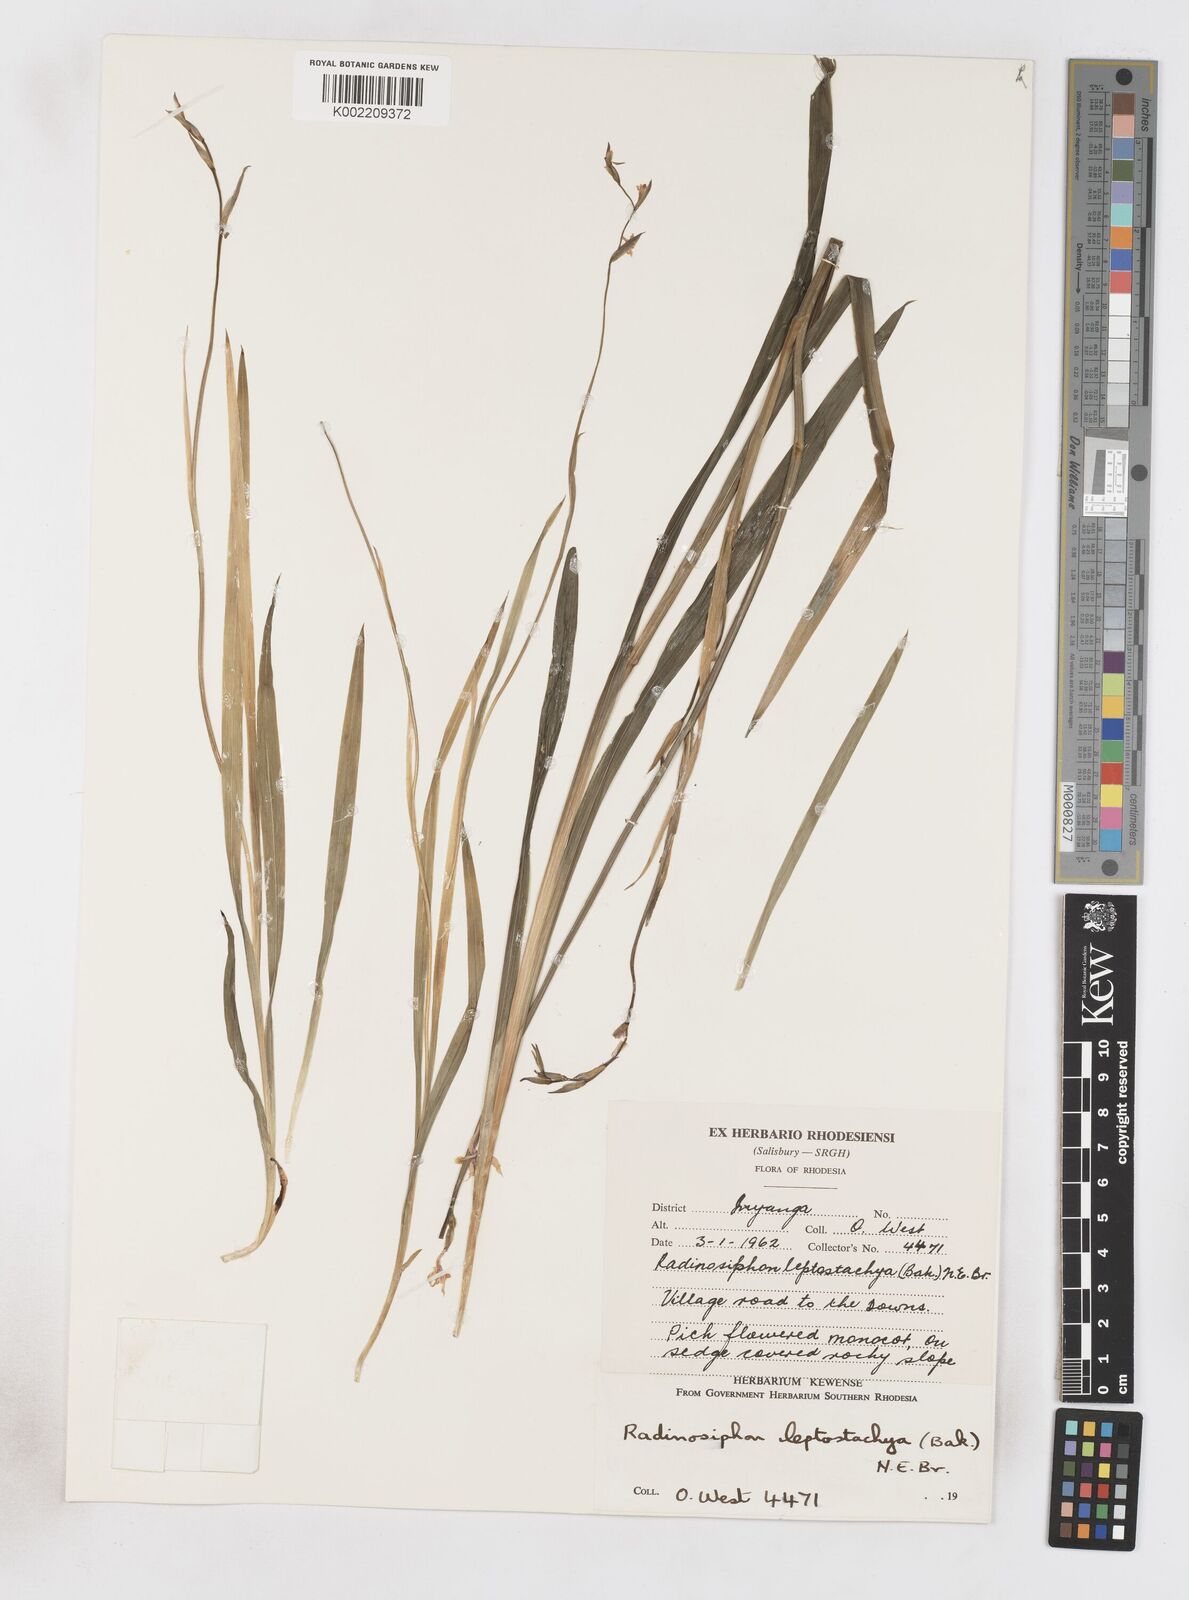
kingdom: Plantae
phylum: Tracheophyta
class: Liliopsida
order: Asparagales
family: Iridaceae
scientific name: Iridaceae
